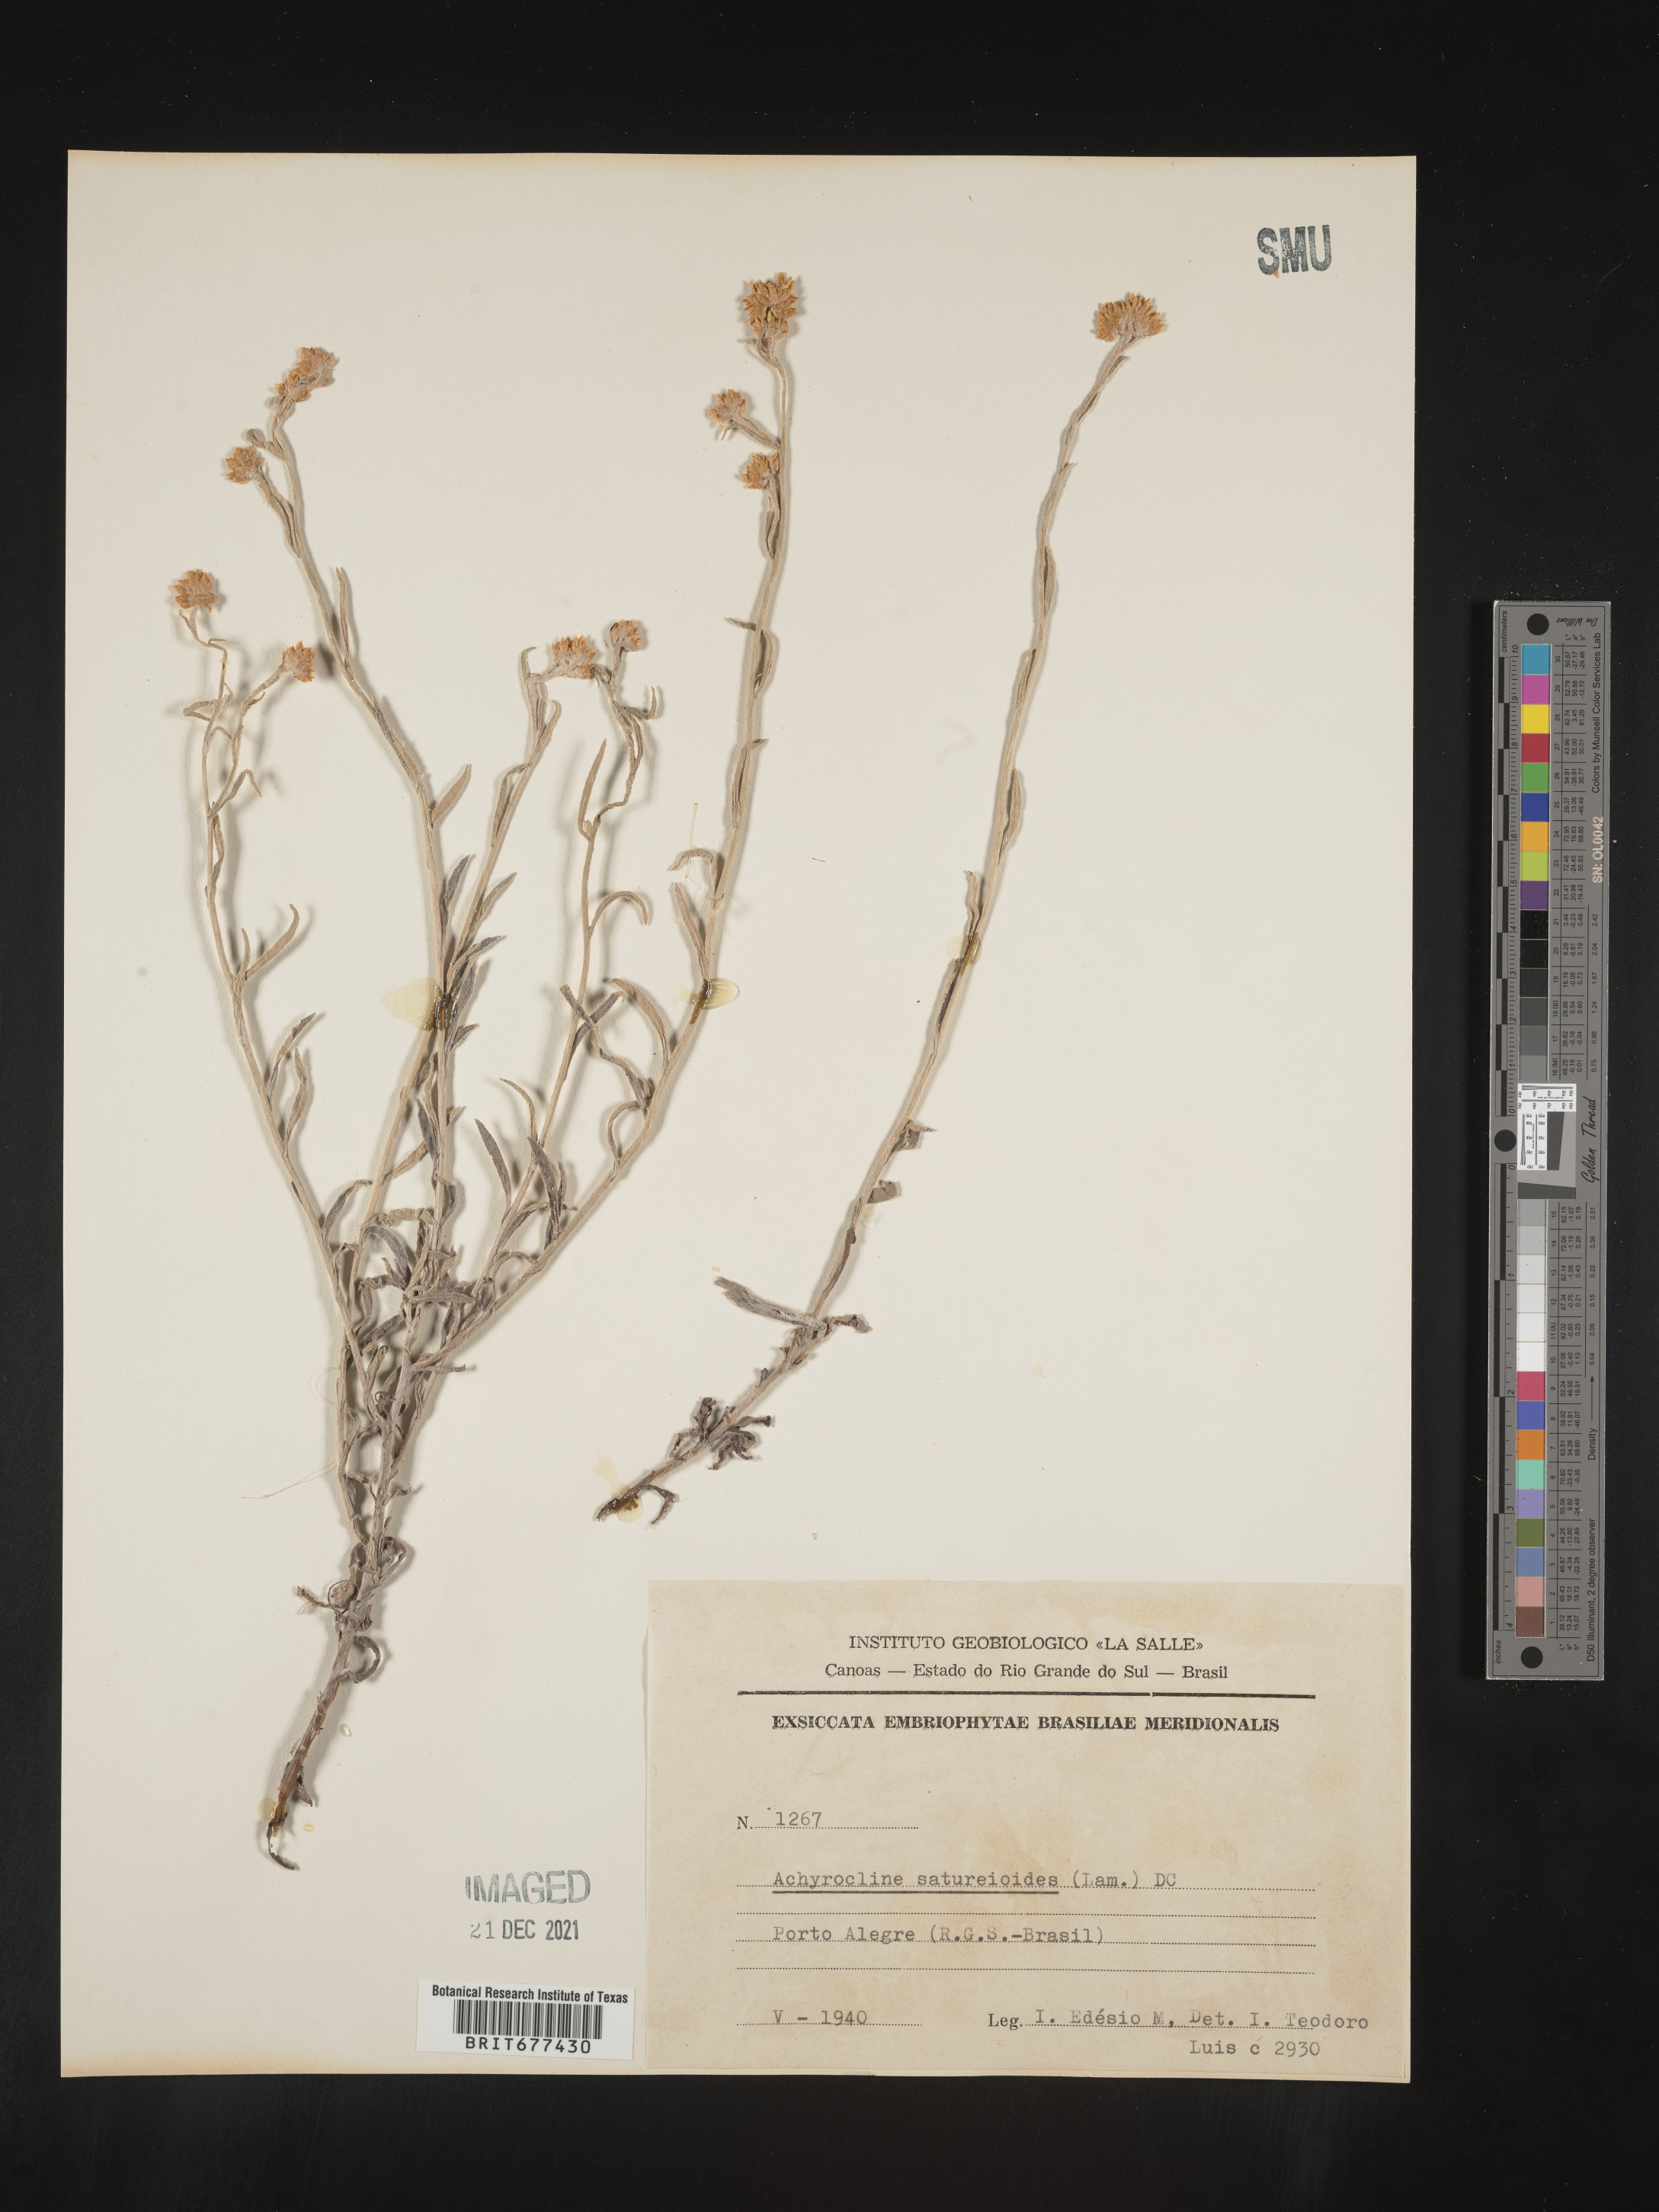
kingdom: Plantae
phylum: Tracheophyta
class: Magnoliopsida
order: Asterales
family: Asteraceae
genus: Achyrocline
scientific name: Achyrocline
